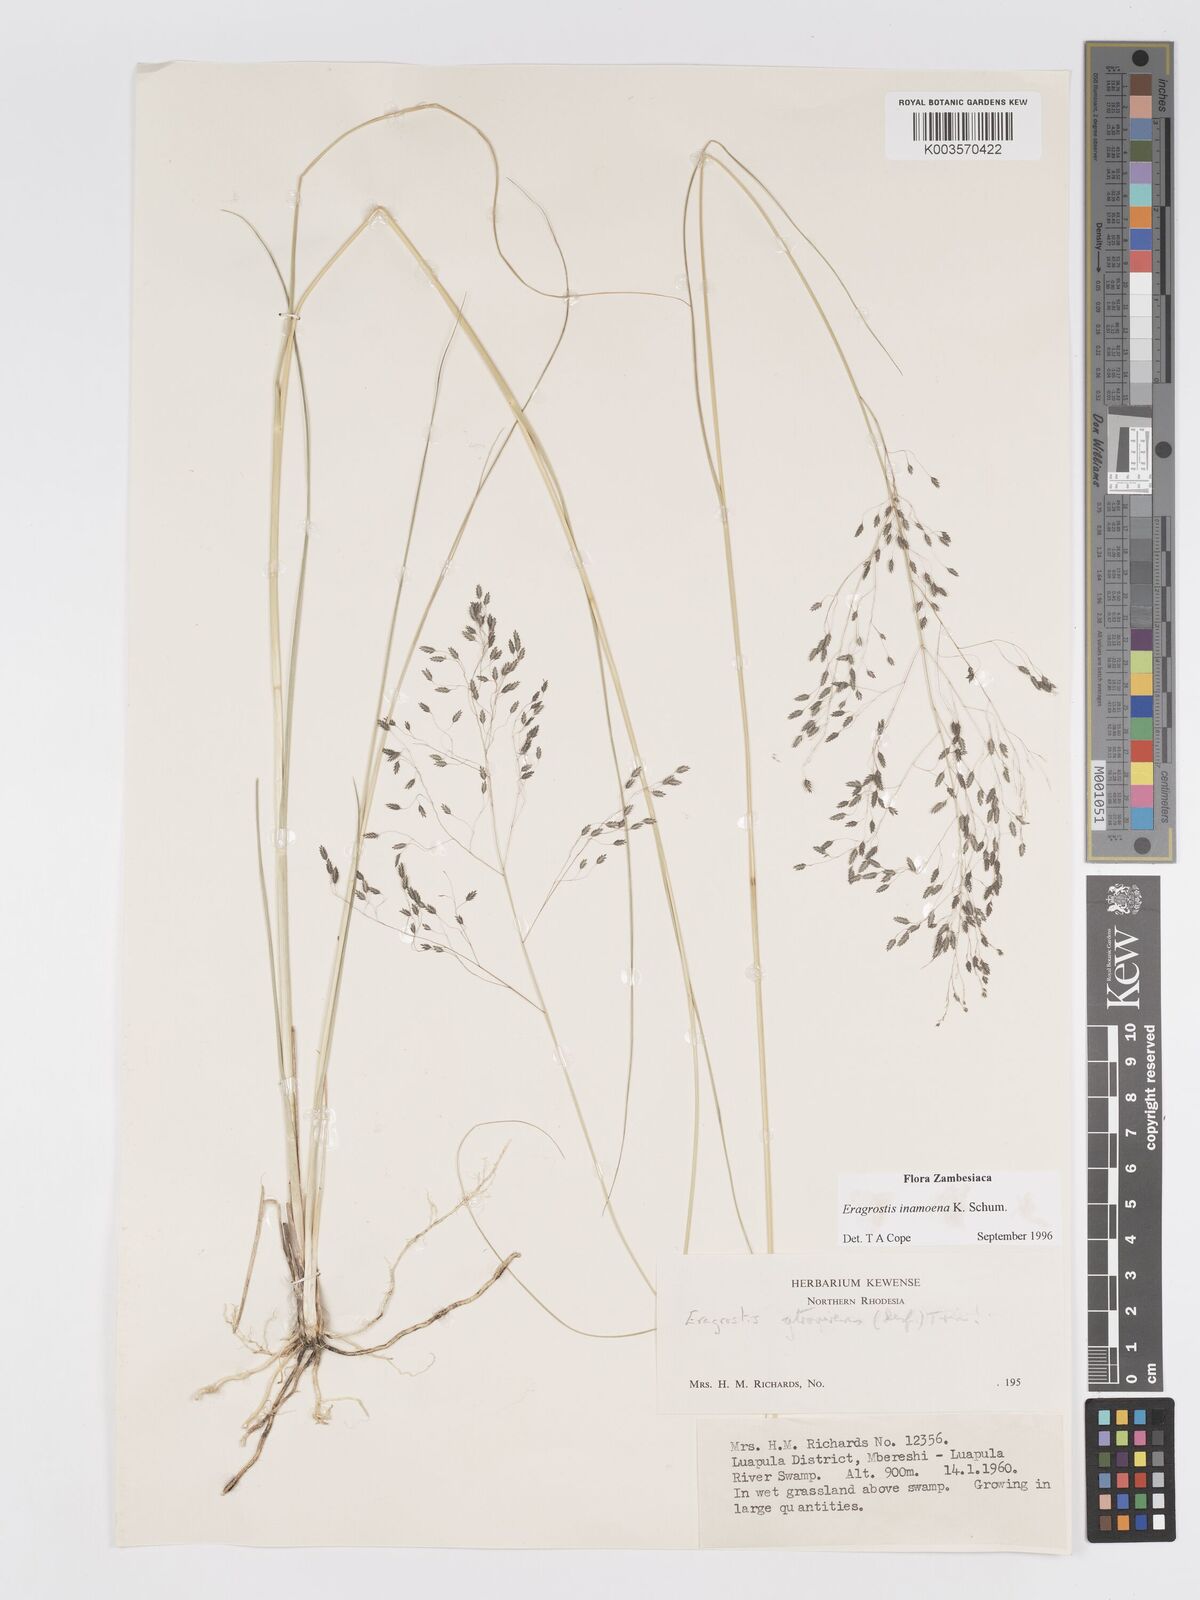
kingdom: Plantae
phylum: Tracheophyta
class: Liliopsida
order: Poales
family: Poaceae
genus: Eragrostis
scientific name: Eragrostis inamoena
